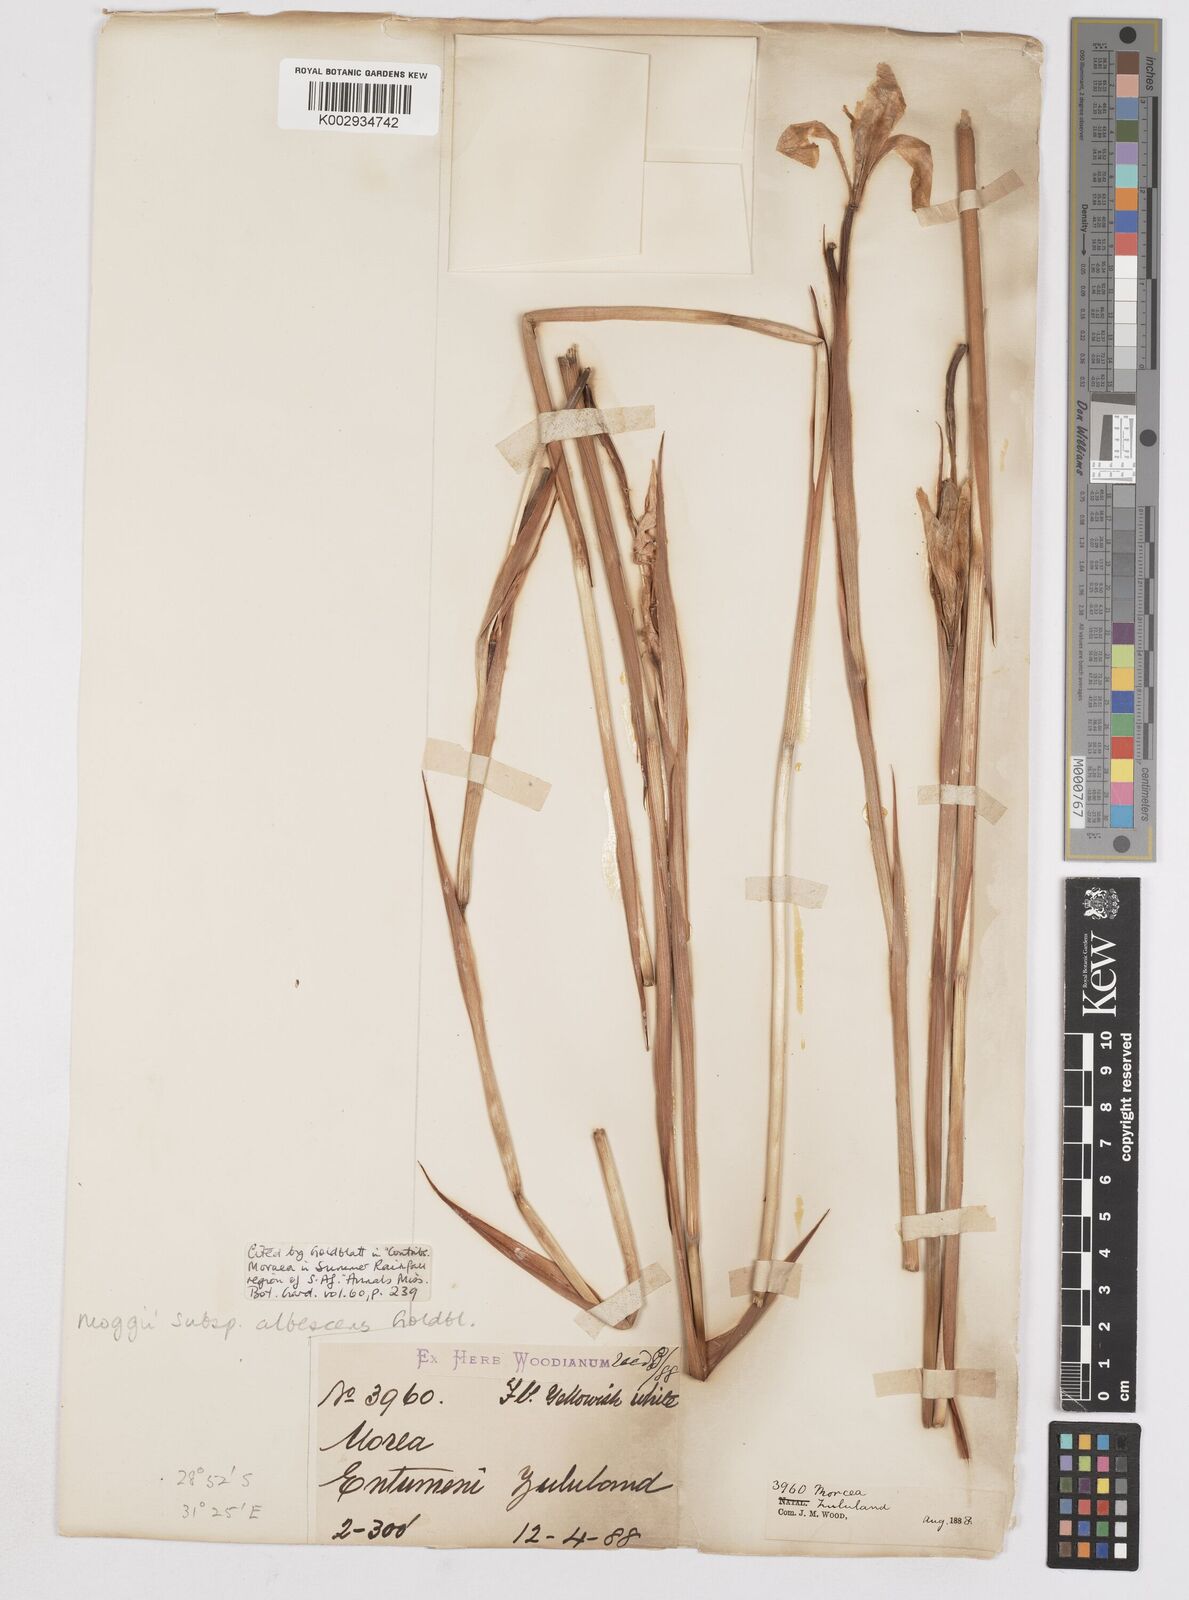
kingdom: Plantae
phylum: Tracheophyta
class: Liliopsida
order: Asparagales
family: Iridaceae
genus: Moraea
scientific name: Moraea moggii
